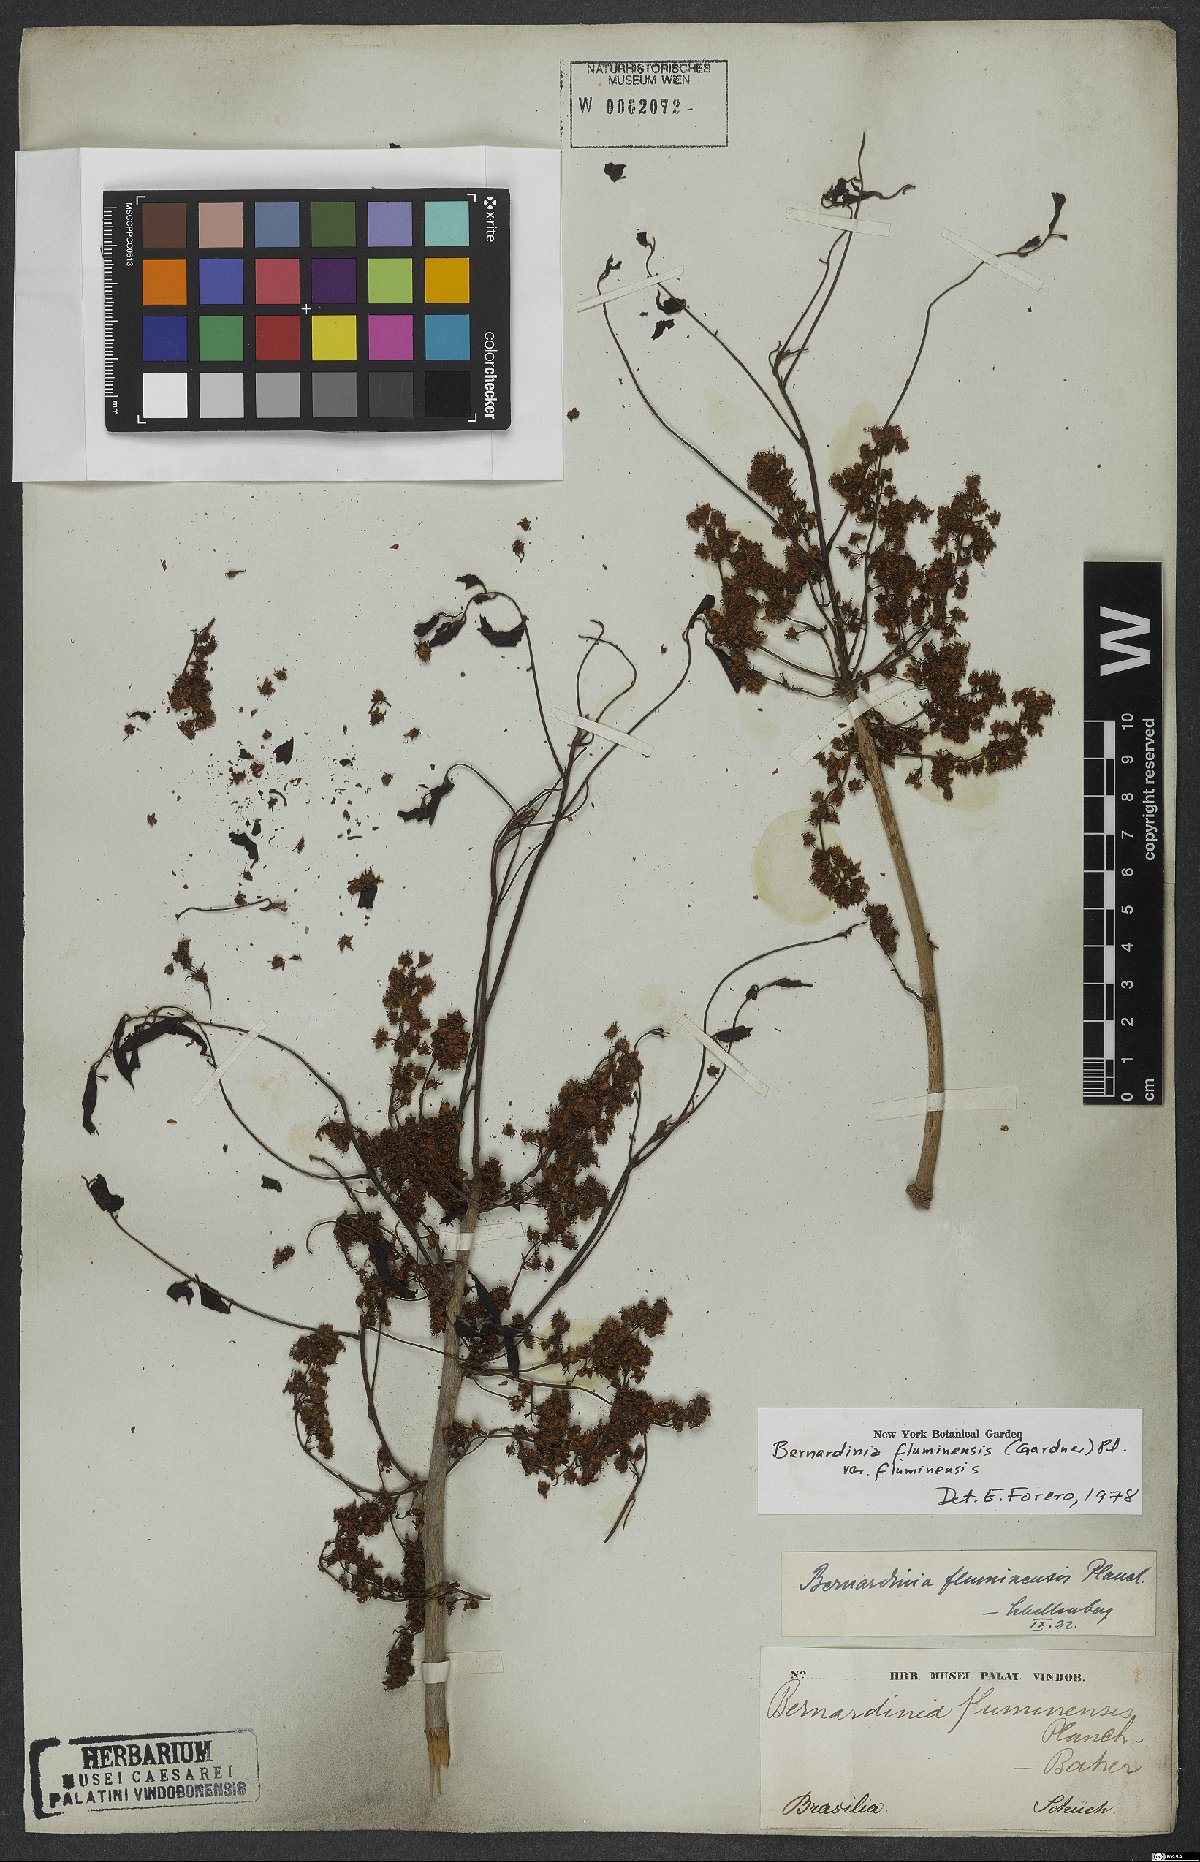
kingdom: Plantae
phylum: Tracheophyta
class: Magnoliopsida
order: Oxalidales
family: Connaraceae
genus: Rourea
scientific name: Rourea fluminensis
